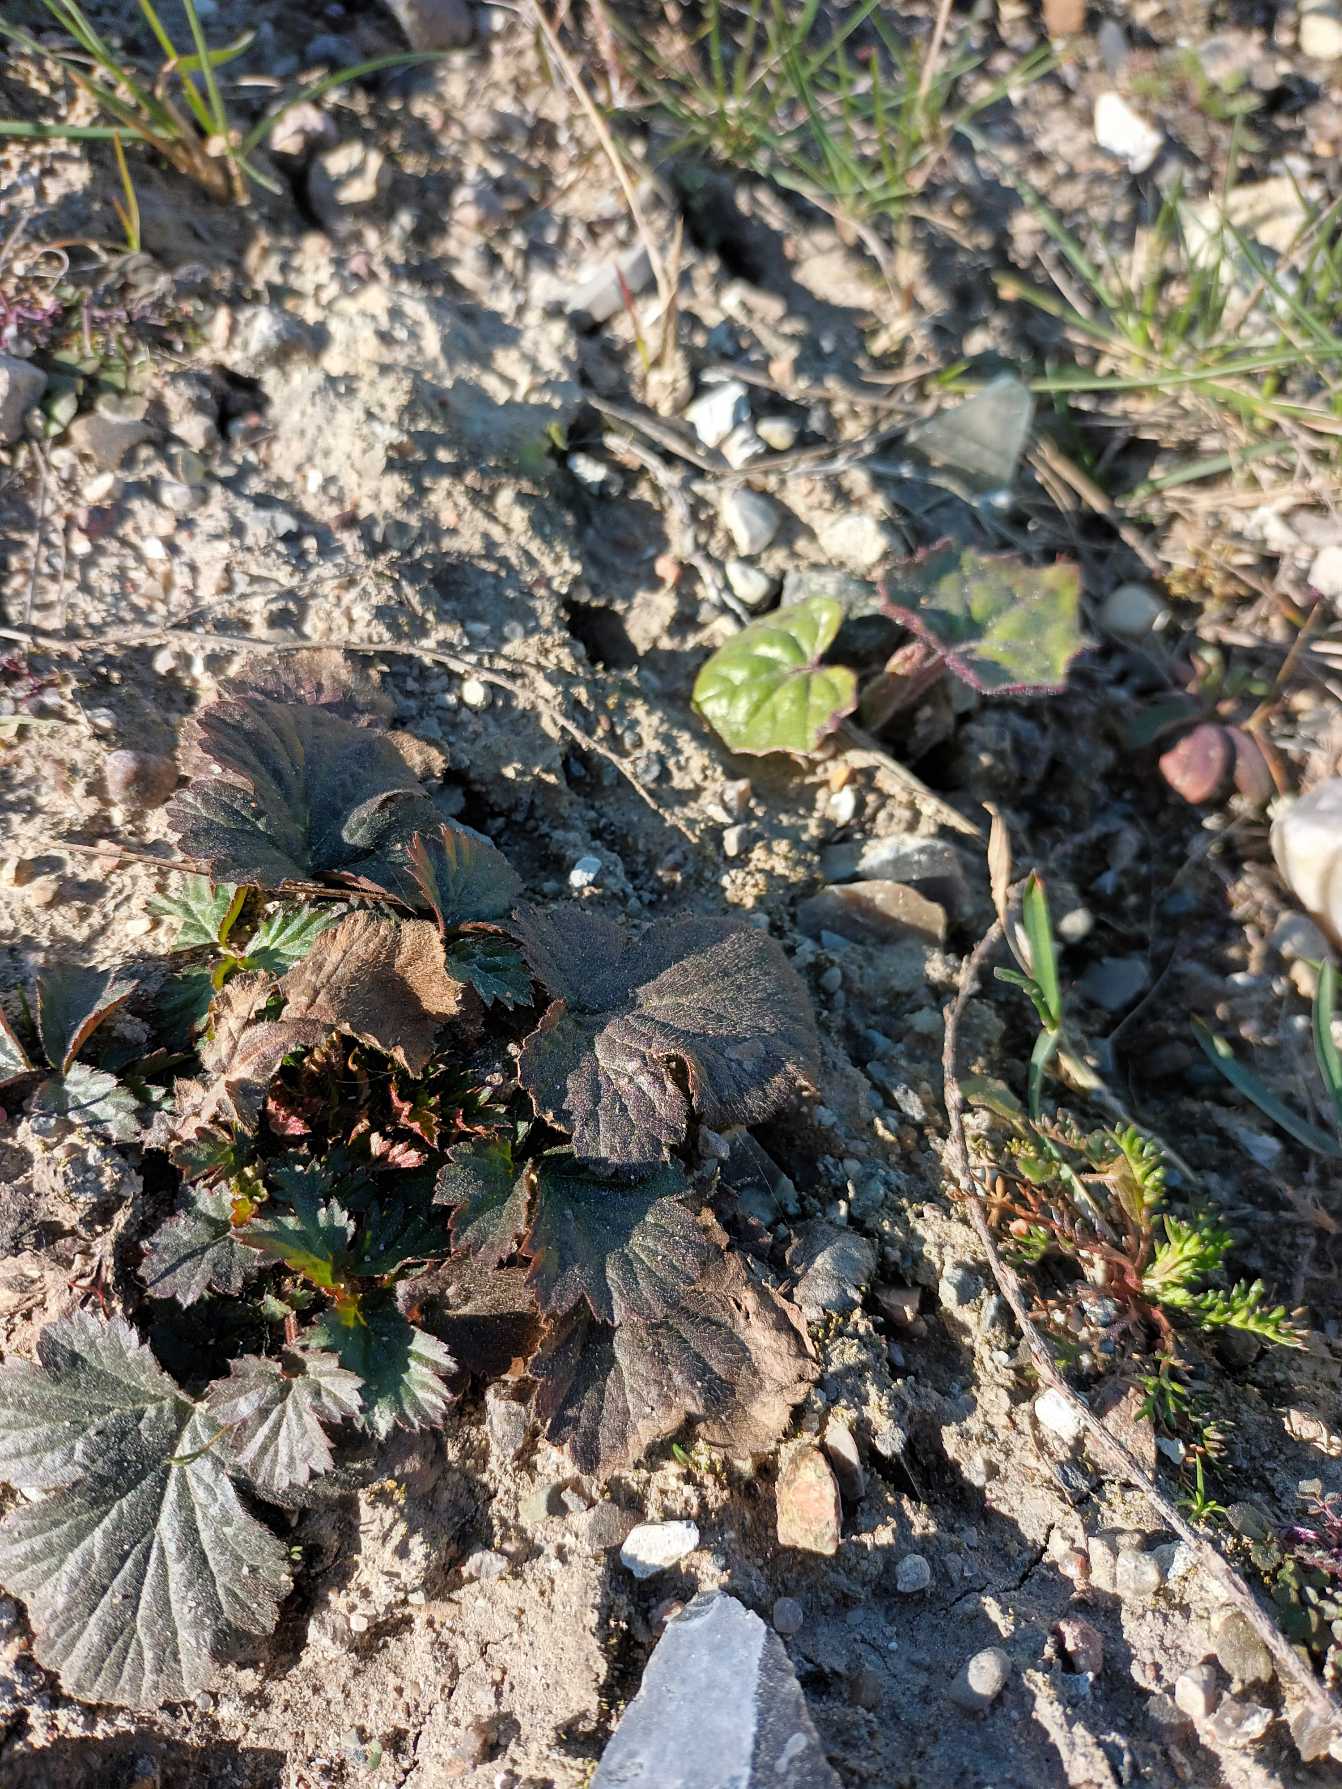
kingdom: Plantae
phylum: Tracheophyta
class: Magnoliopsida
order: Rosales
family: Rosaceae
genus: Geum
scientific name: Geum urbanum
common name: Feber-nellikerod
